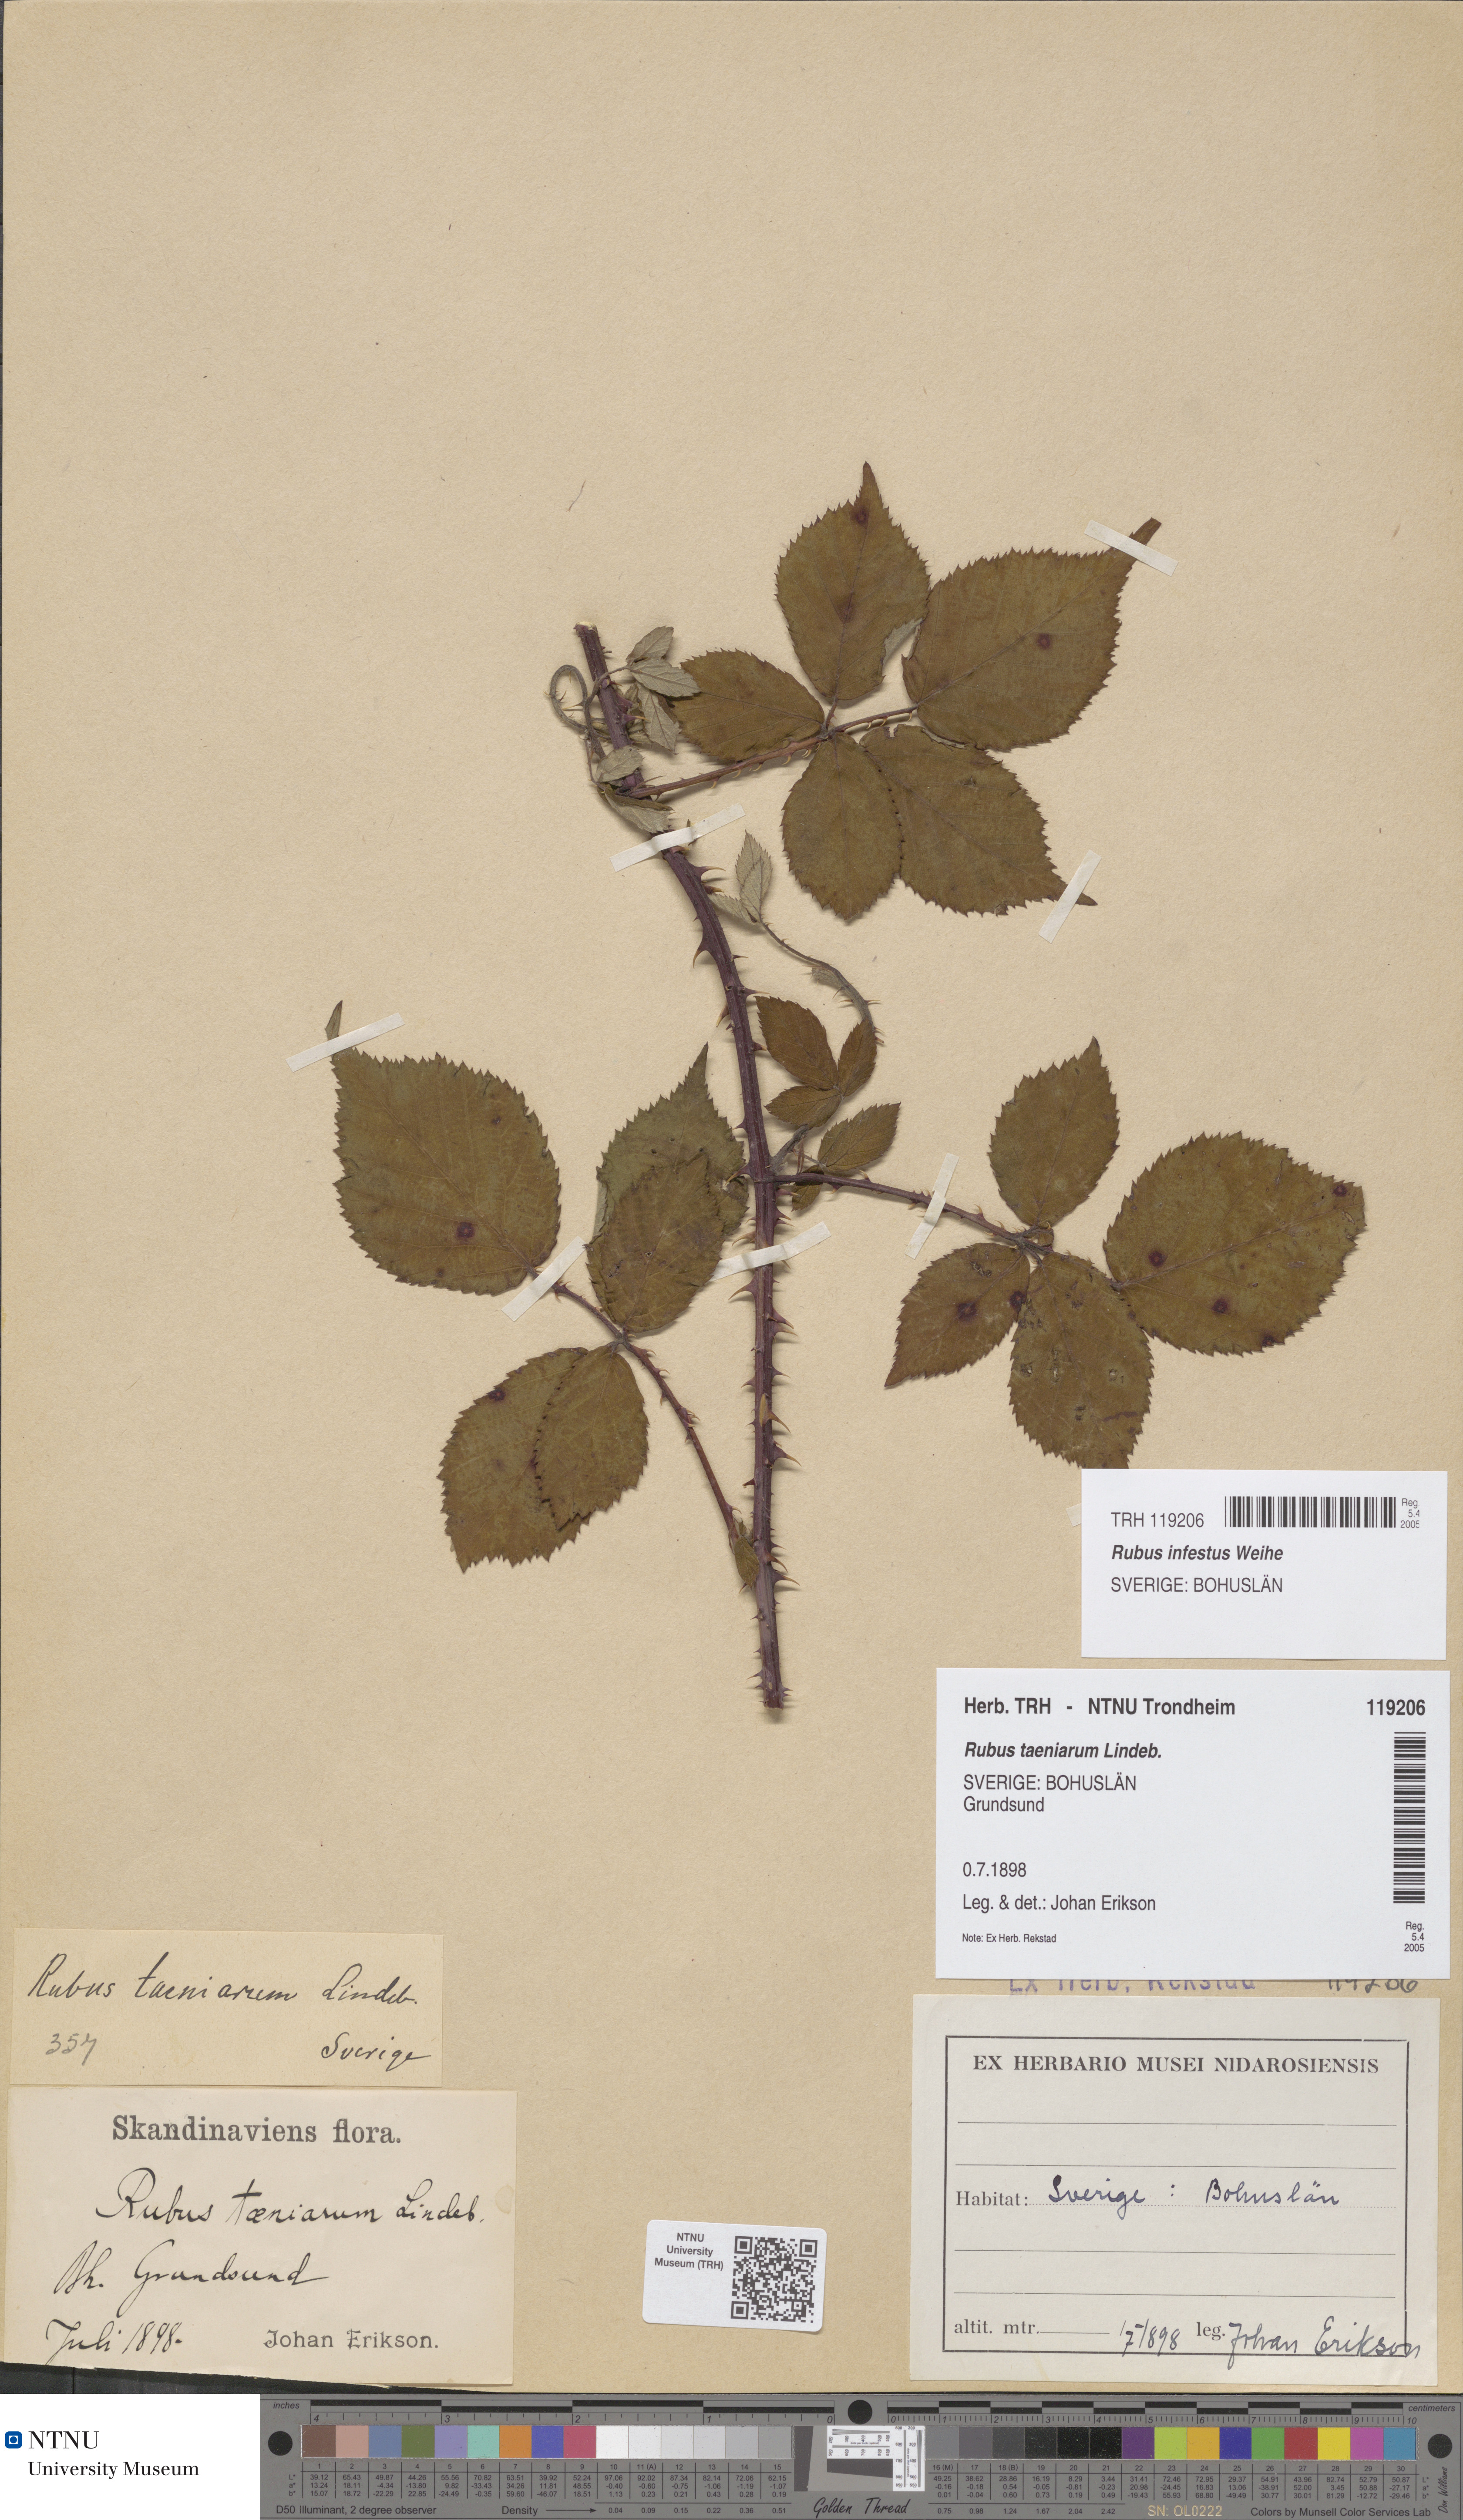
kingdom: Plantae
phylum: Tracheophyta
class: Magnoliopsida
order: Rosales
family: Rosaceae
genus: Rubus
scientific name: Rubus infestus
